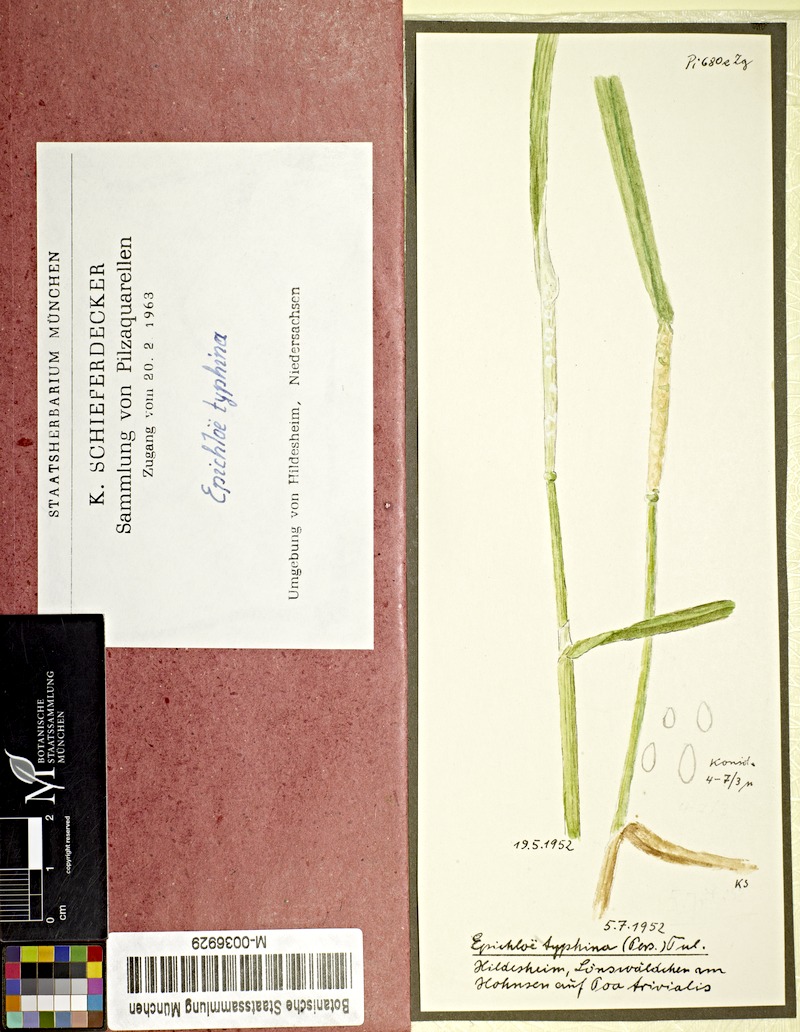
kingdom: Plantae
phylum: Tracheophyta
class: Liliopsida
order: Poales
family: Poaceae
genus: Poa
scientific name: Poa trivialis
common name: Rough bluegrass
